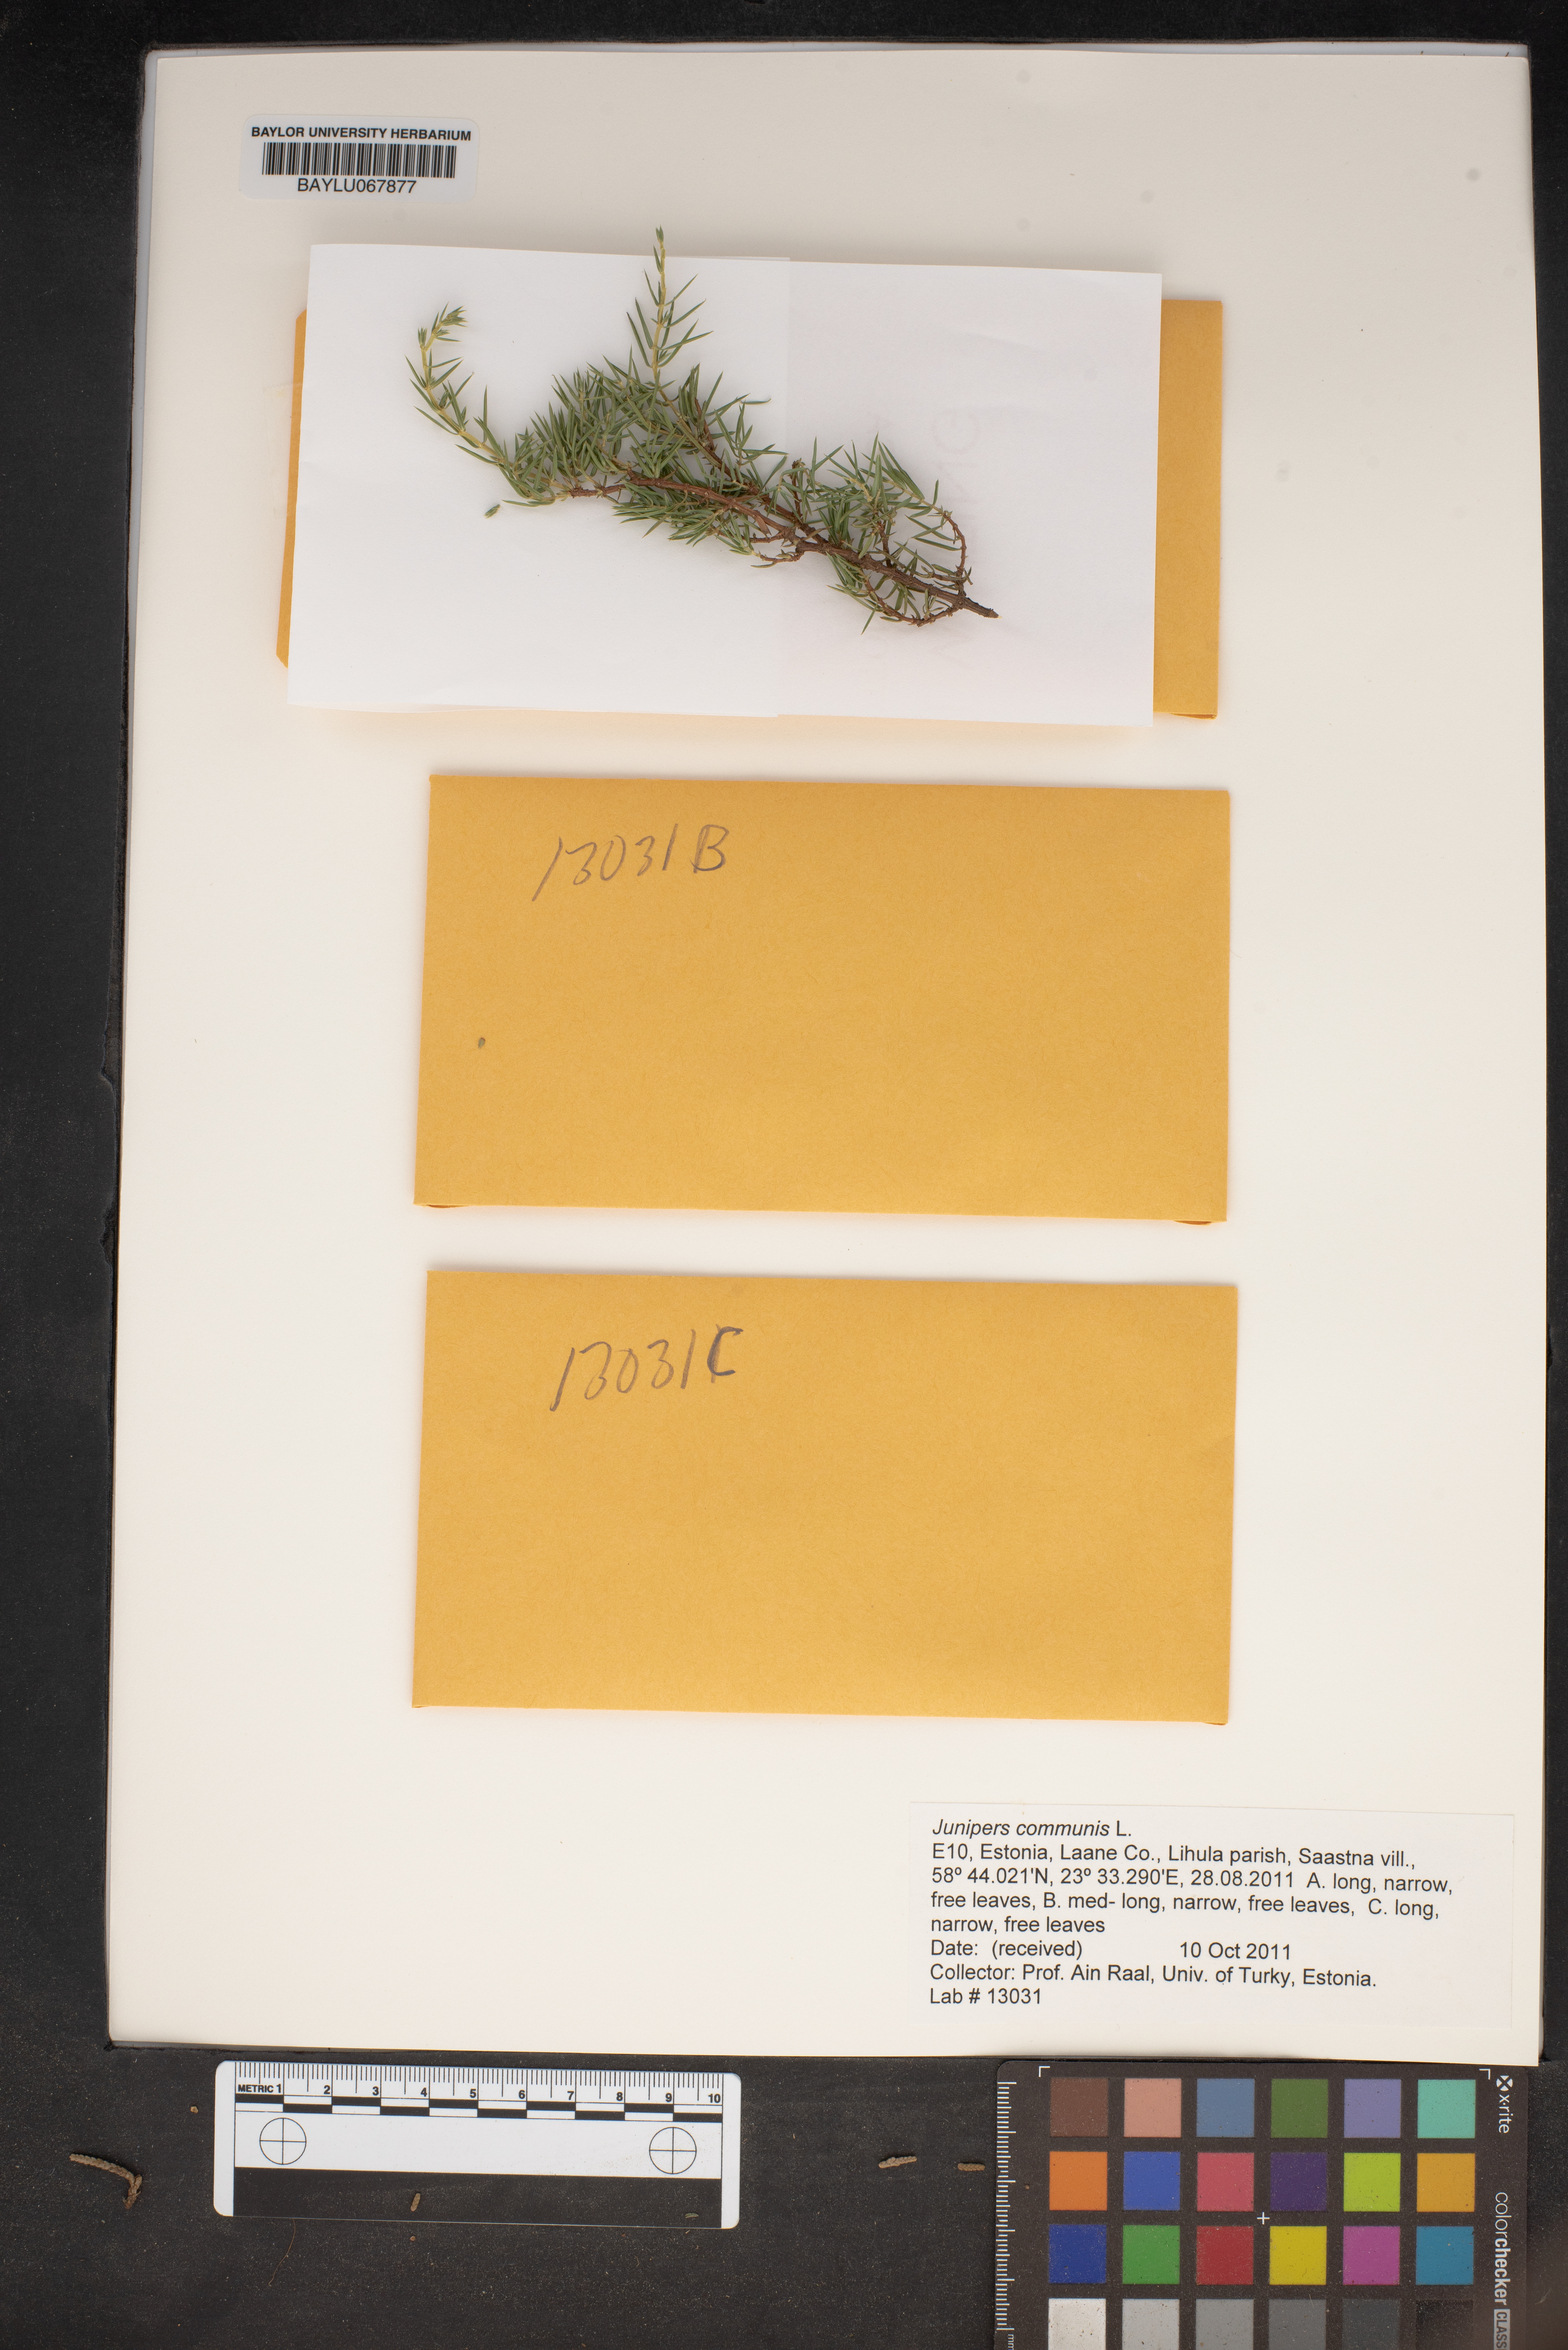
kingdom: Plantae
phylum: Tracheophyta
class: Pinopsida
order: Pinales
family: Cupressaceae
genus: Juniperus
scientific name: Juniperus communis
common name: Common juniper
